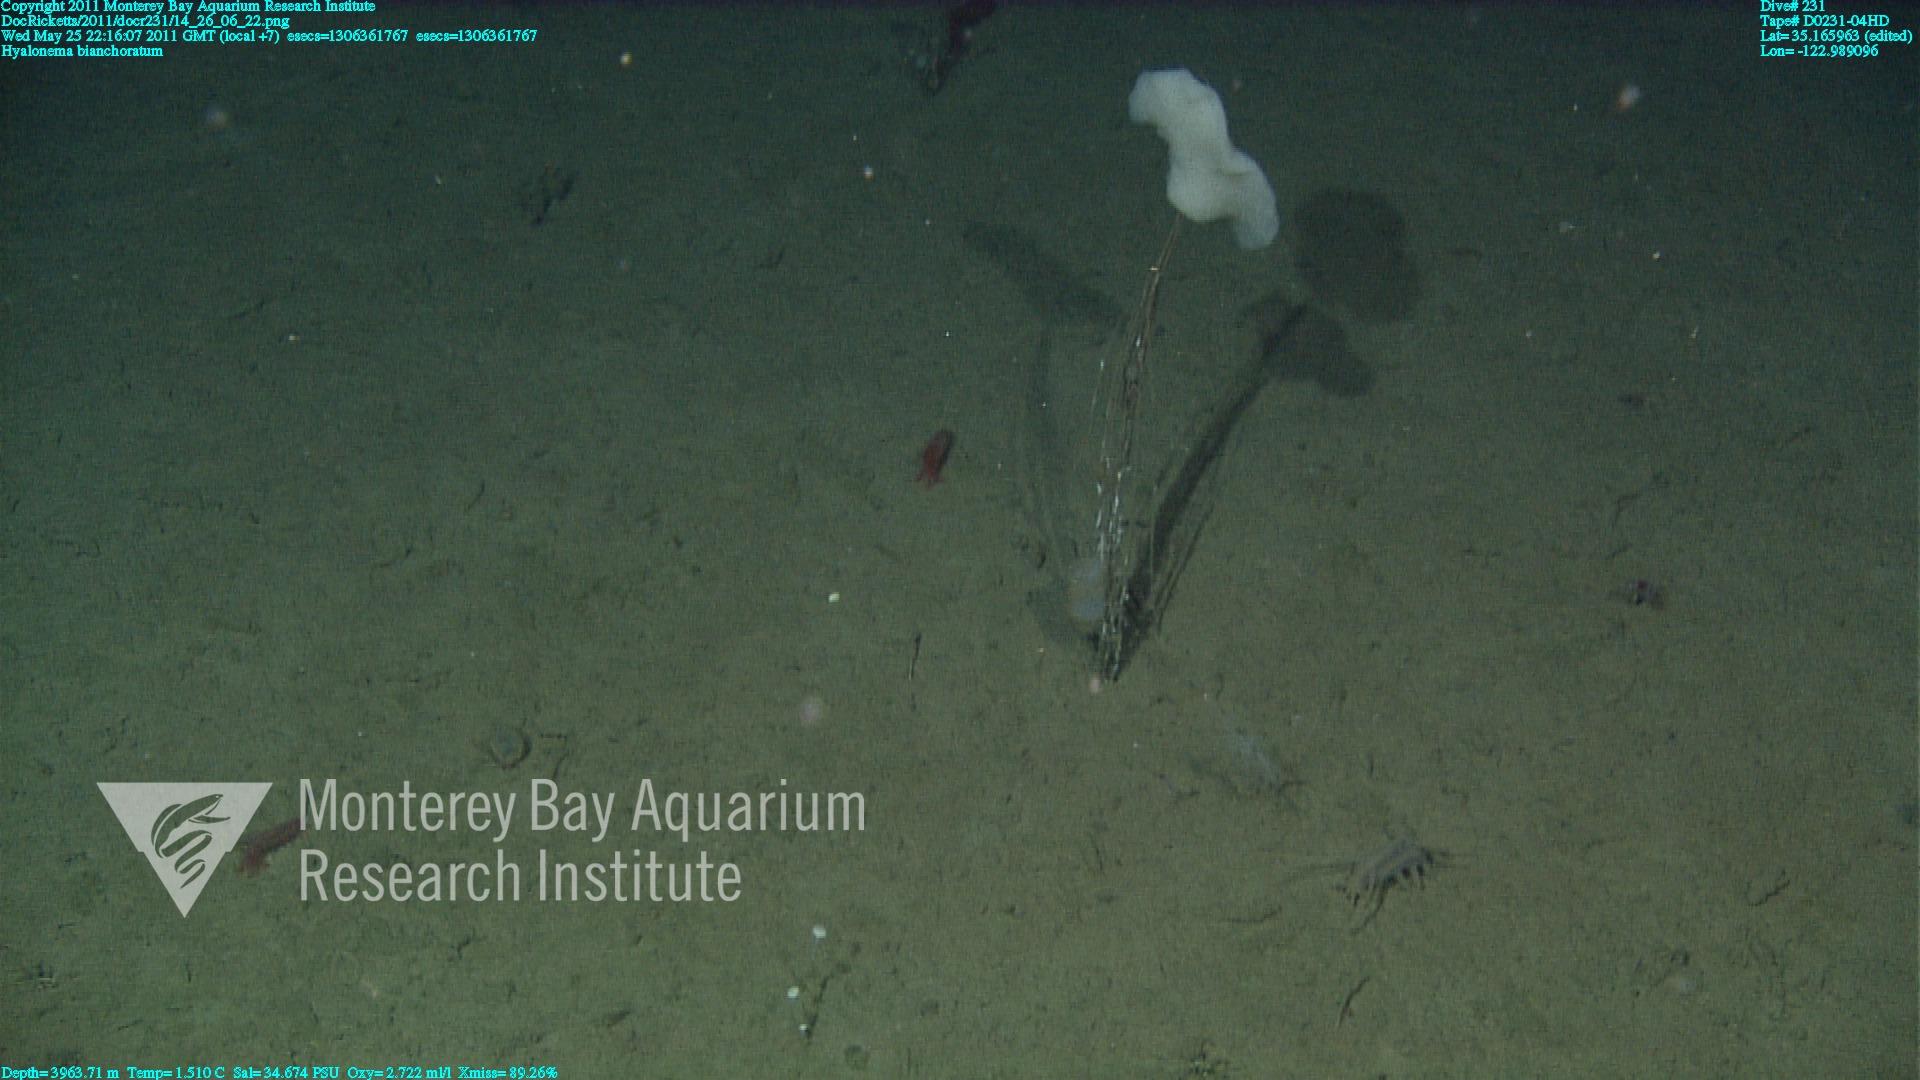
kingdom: Animalia
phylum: Porifera
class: Hexactinellida
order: Amphidiscosida
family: Hyalonematidae
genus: Hyalonema
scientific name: Hyalonema bianchoratum
